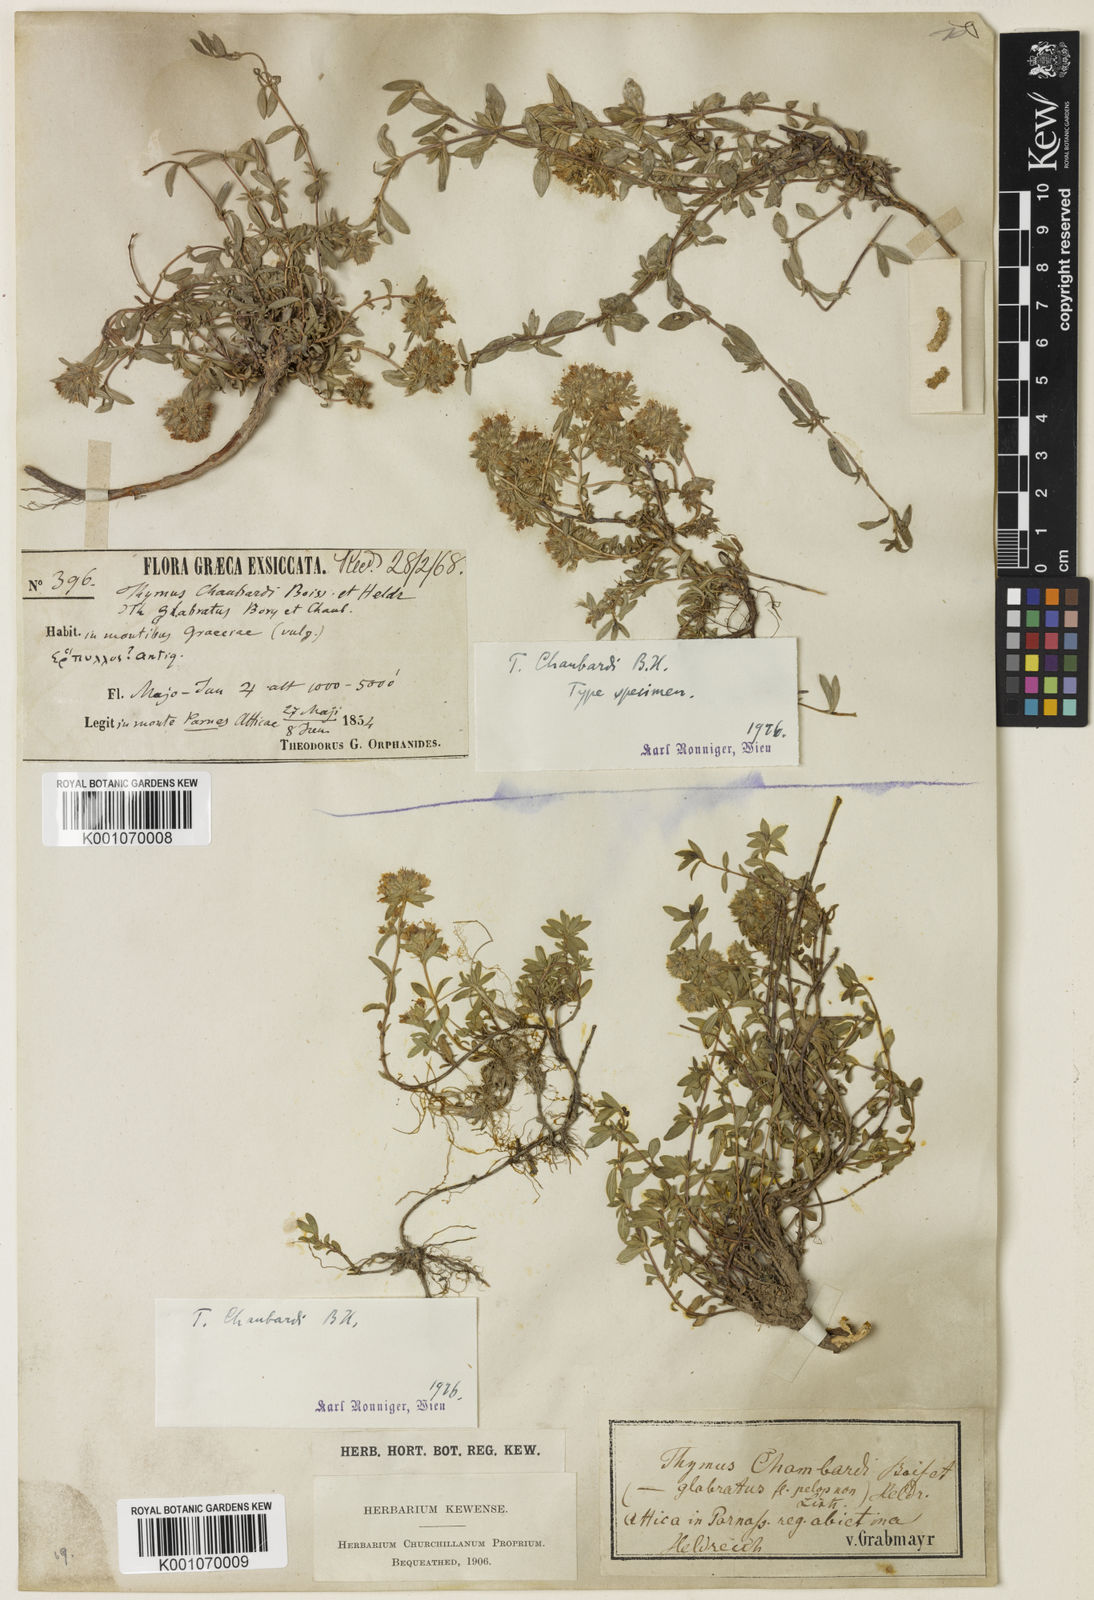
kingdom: Plantae
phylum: Tracheophyta
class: Magnoliopsida
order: Lamiales
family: Lamiaceae
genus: Thymus
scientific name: Thymus
